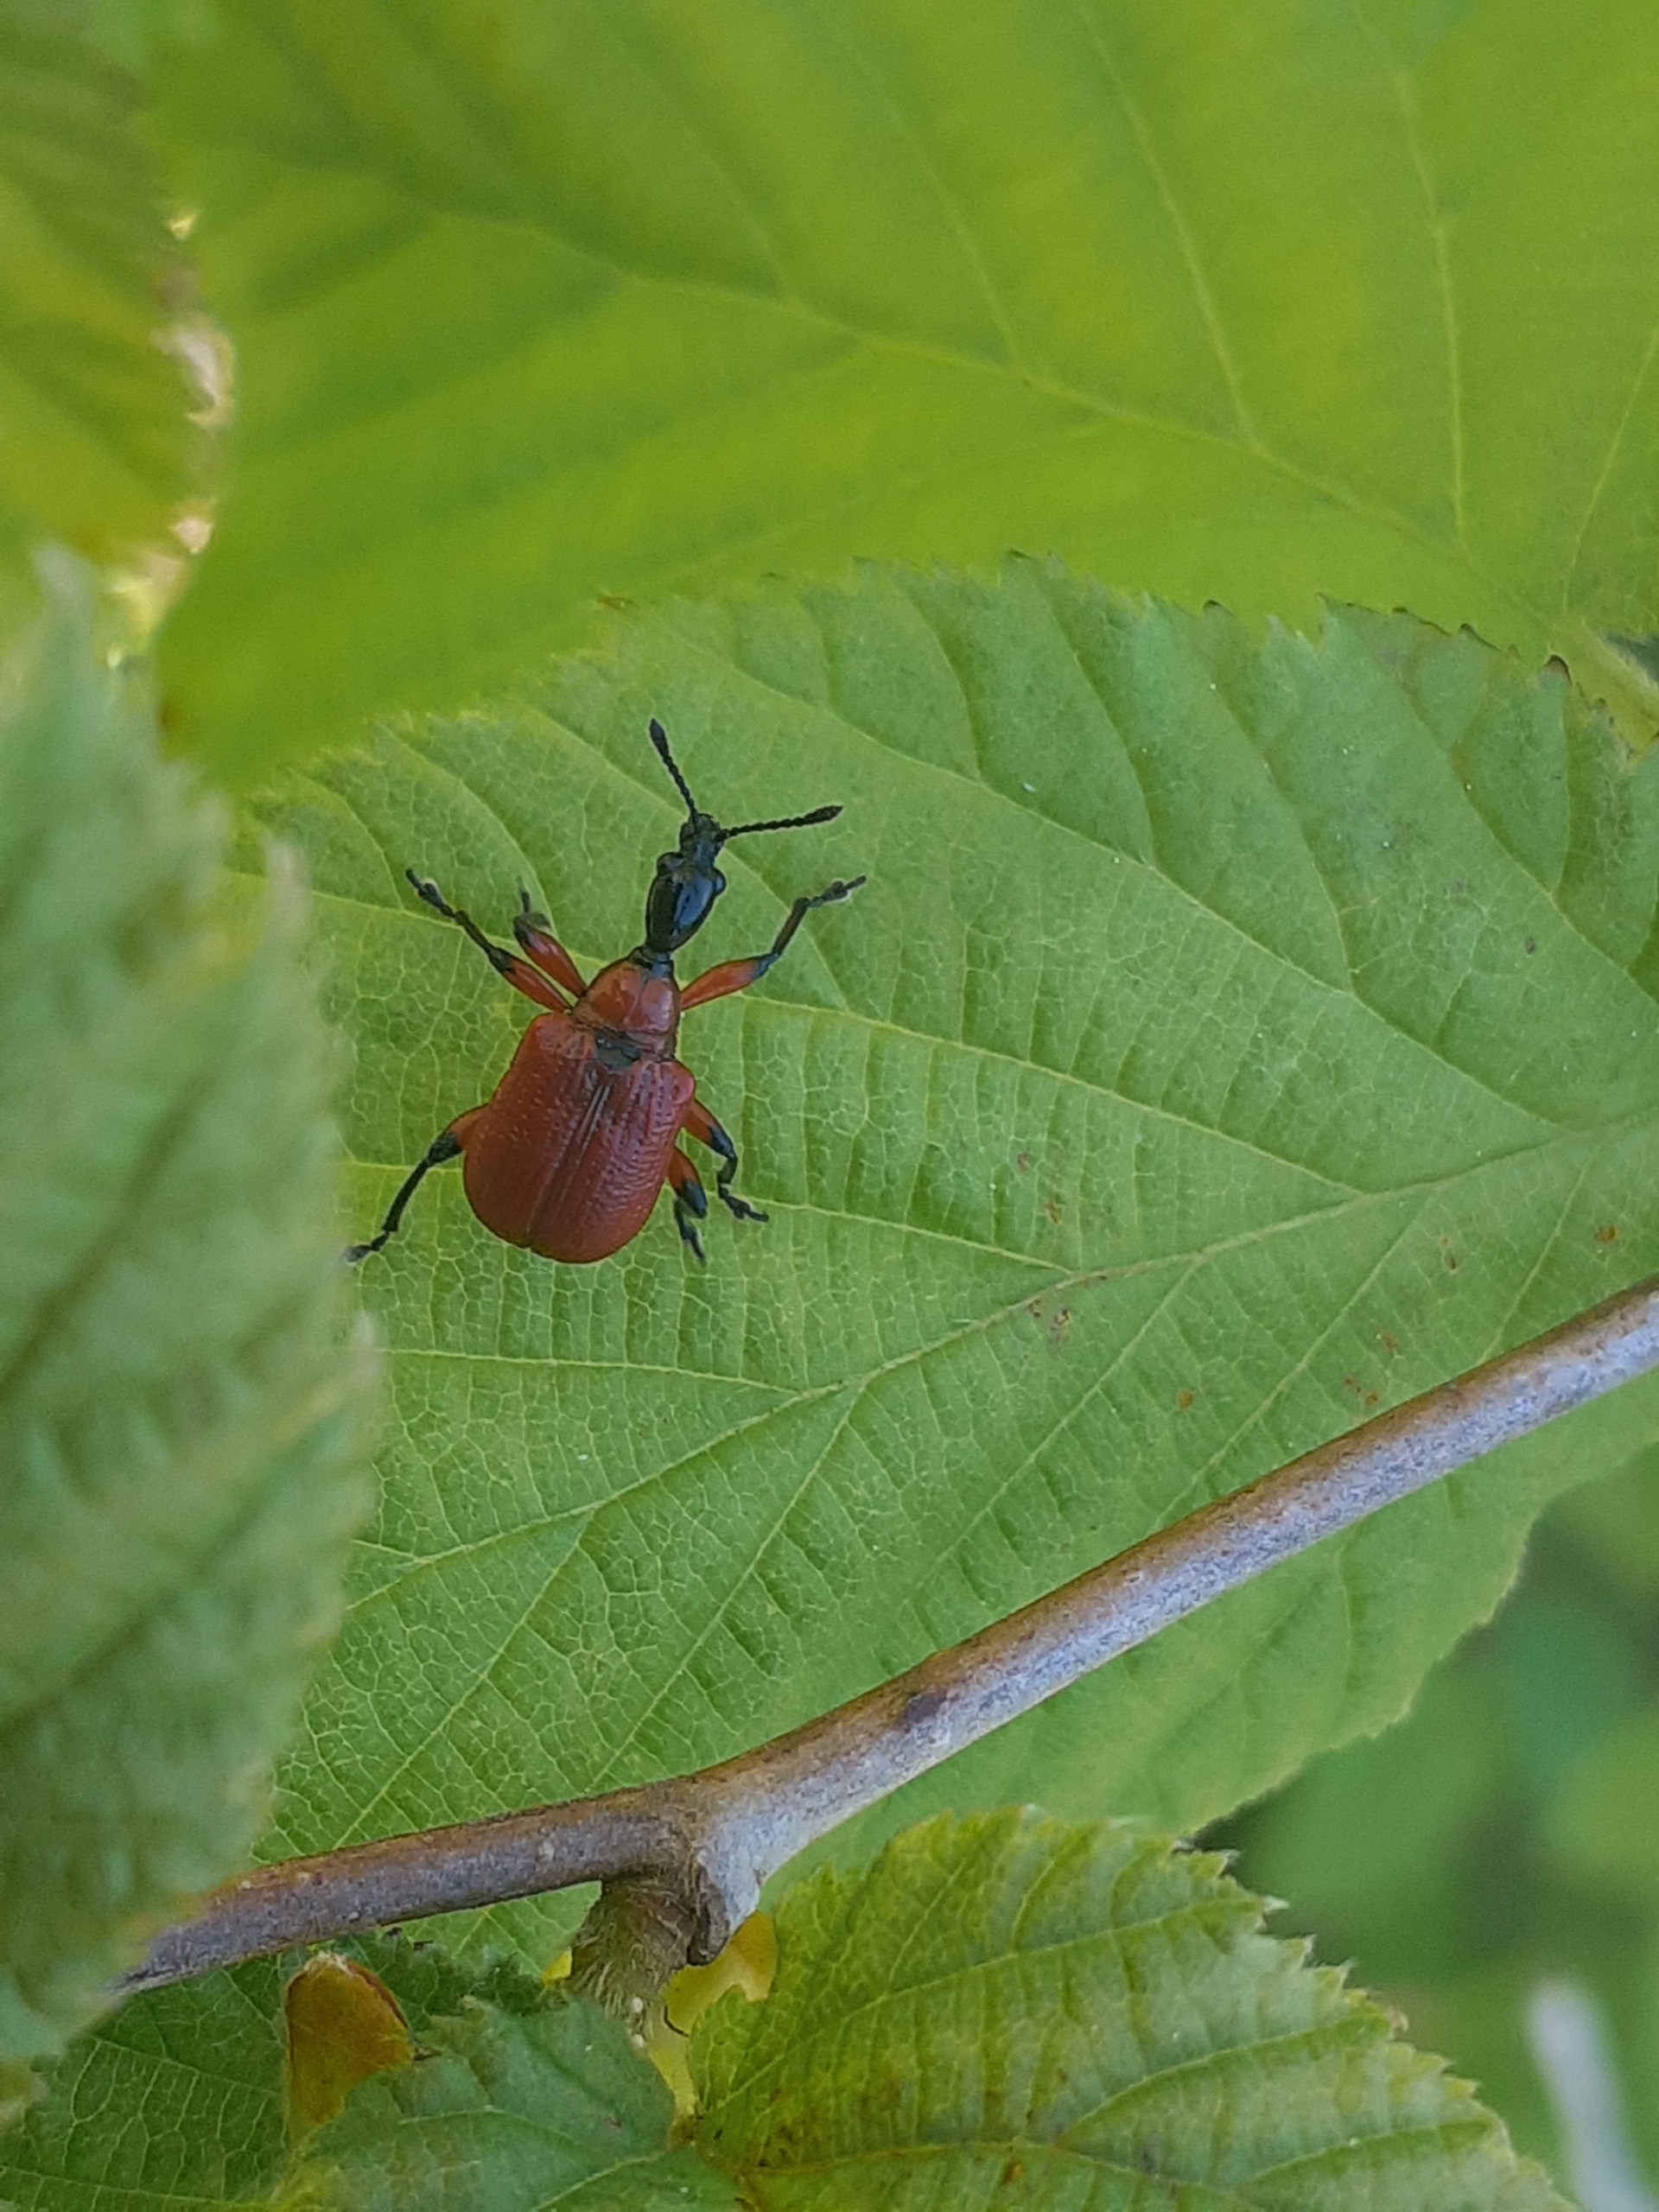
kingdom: Animalia
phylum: Arthropoda
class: Insecta
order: Coleoptera
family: Attelabidae
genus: Apoderus
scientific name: Apoderus coryli
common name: Hasselbladruller
